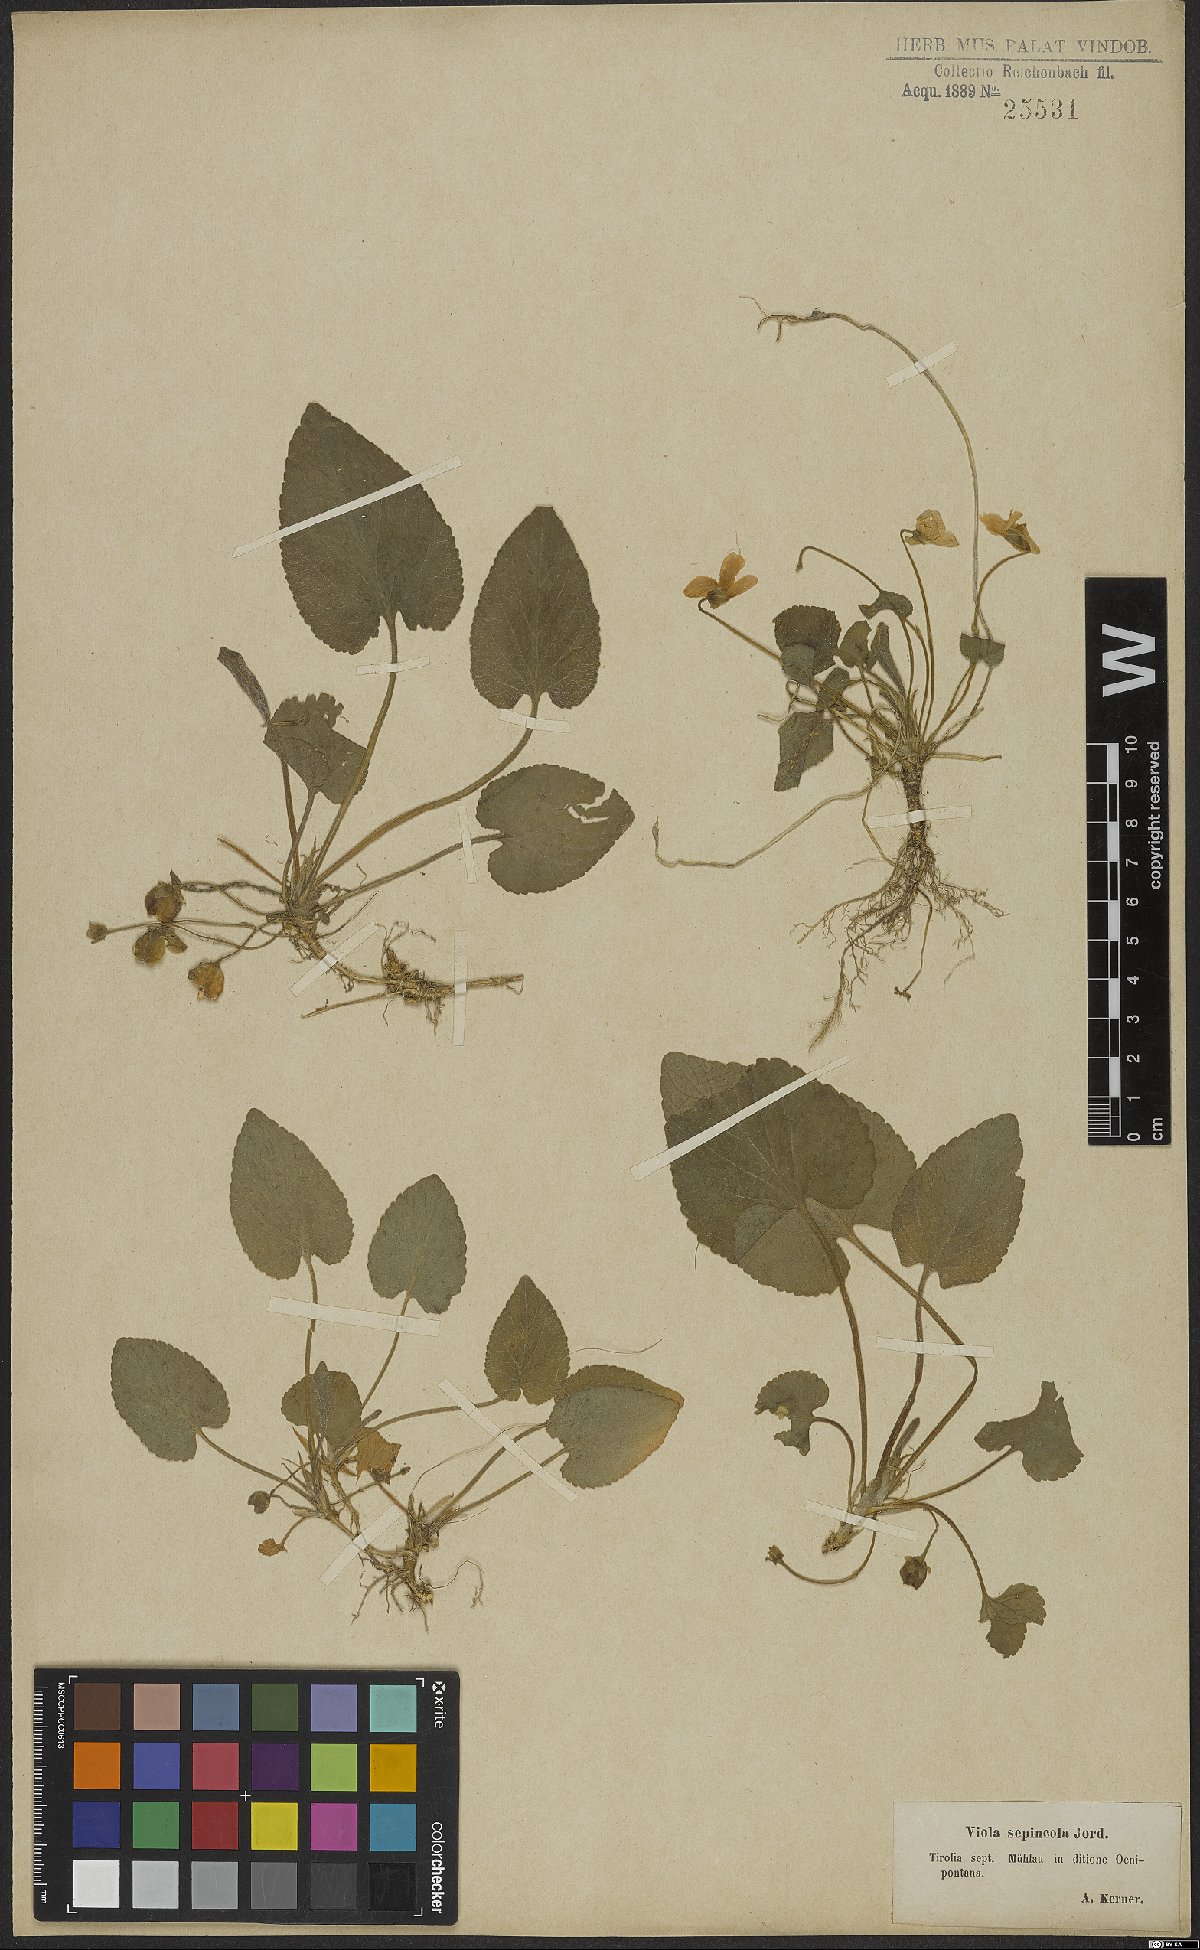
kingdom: Plantae
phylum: Tracheophyta
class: Magnoliopsida
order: Malpighiales
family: Violaceae
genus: Viola
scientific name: Viola suavis
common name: Russian violet
